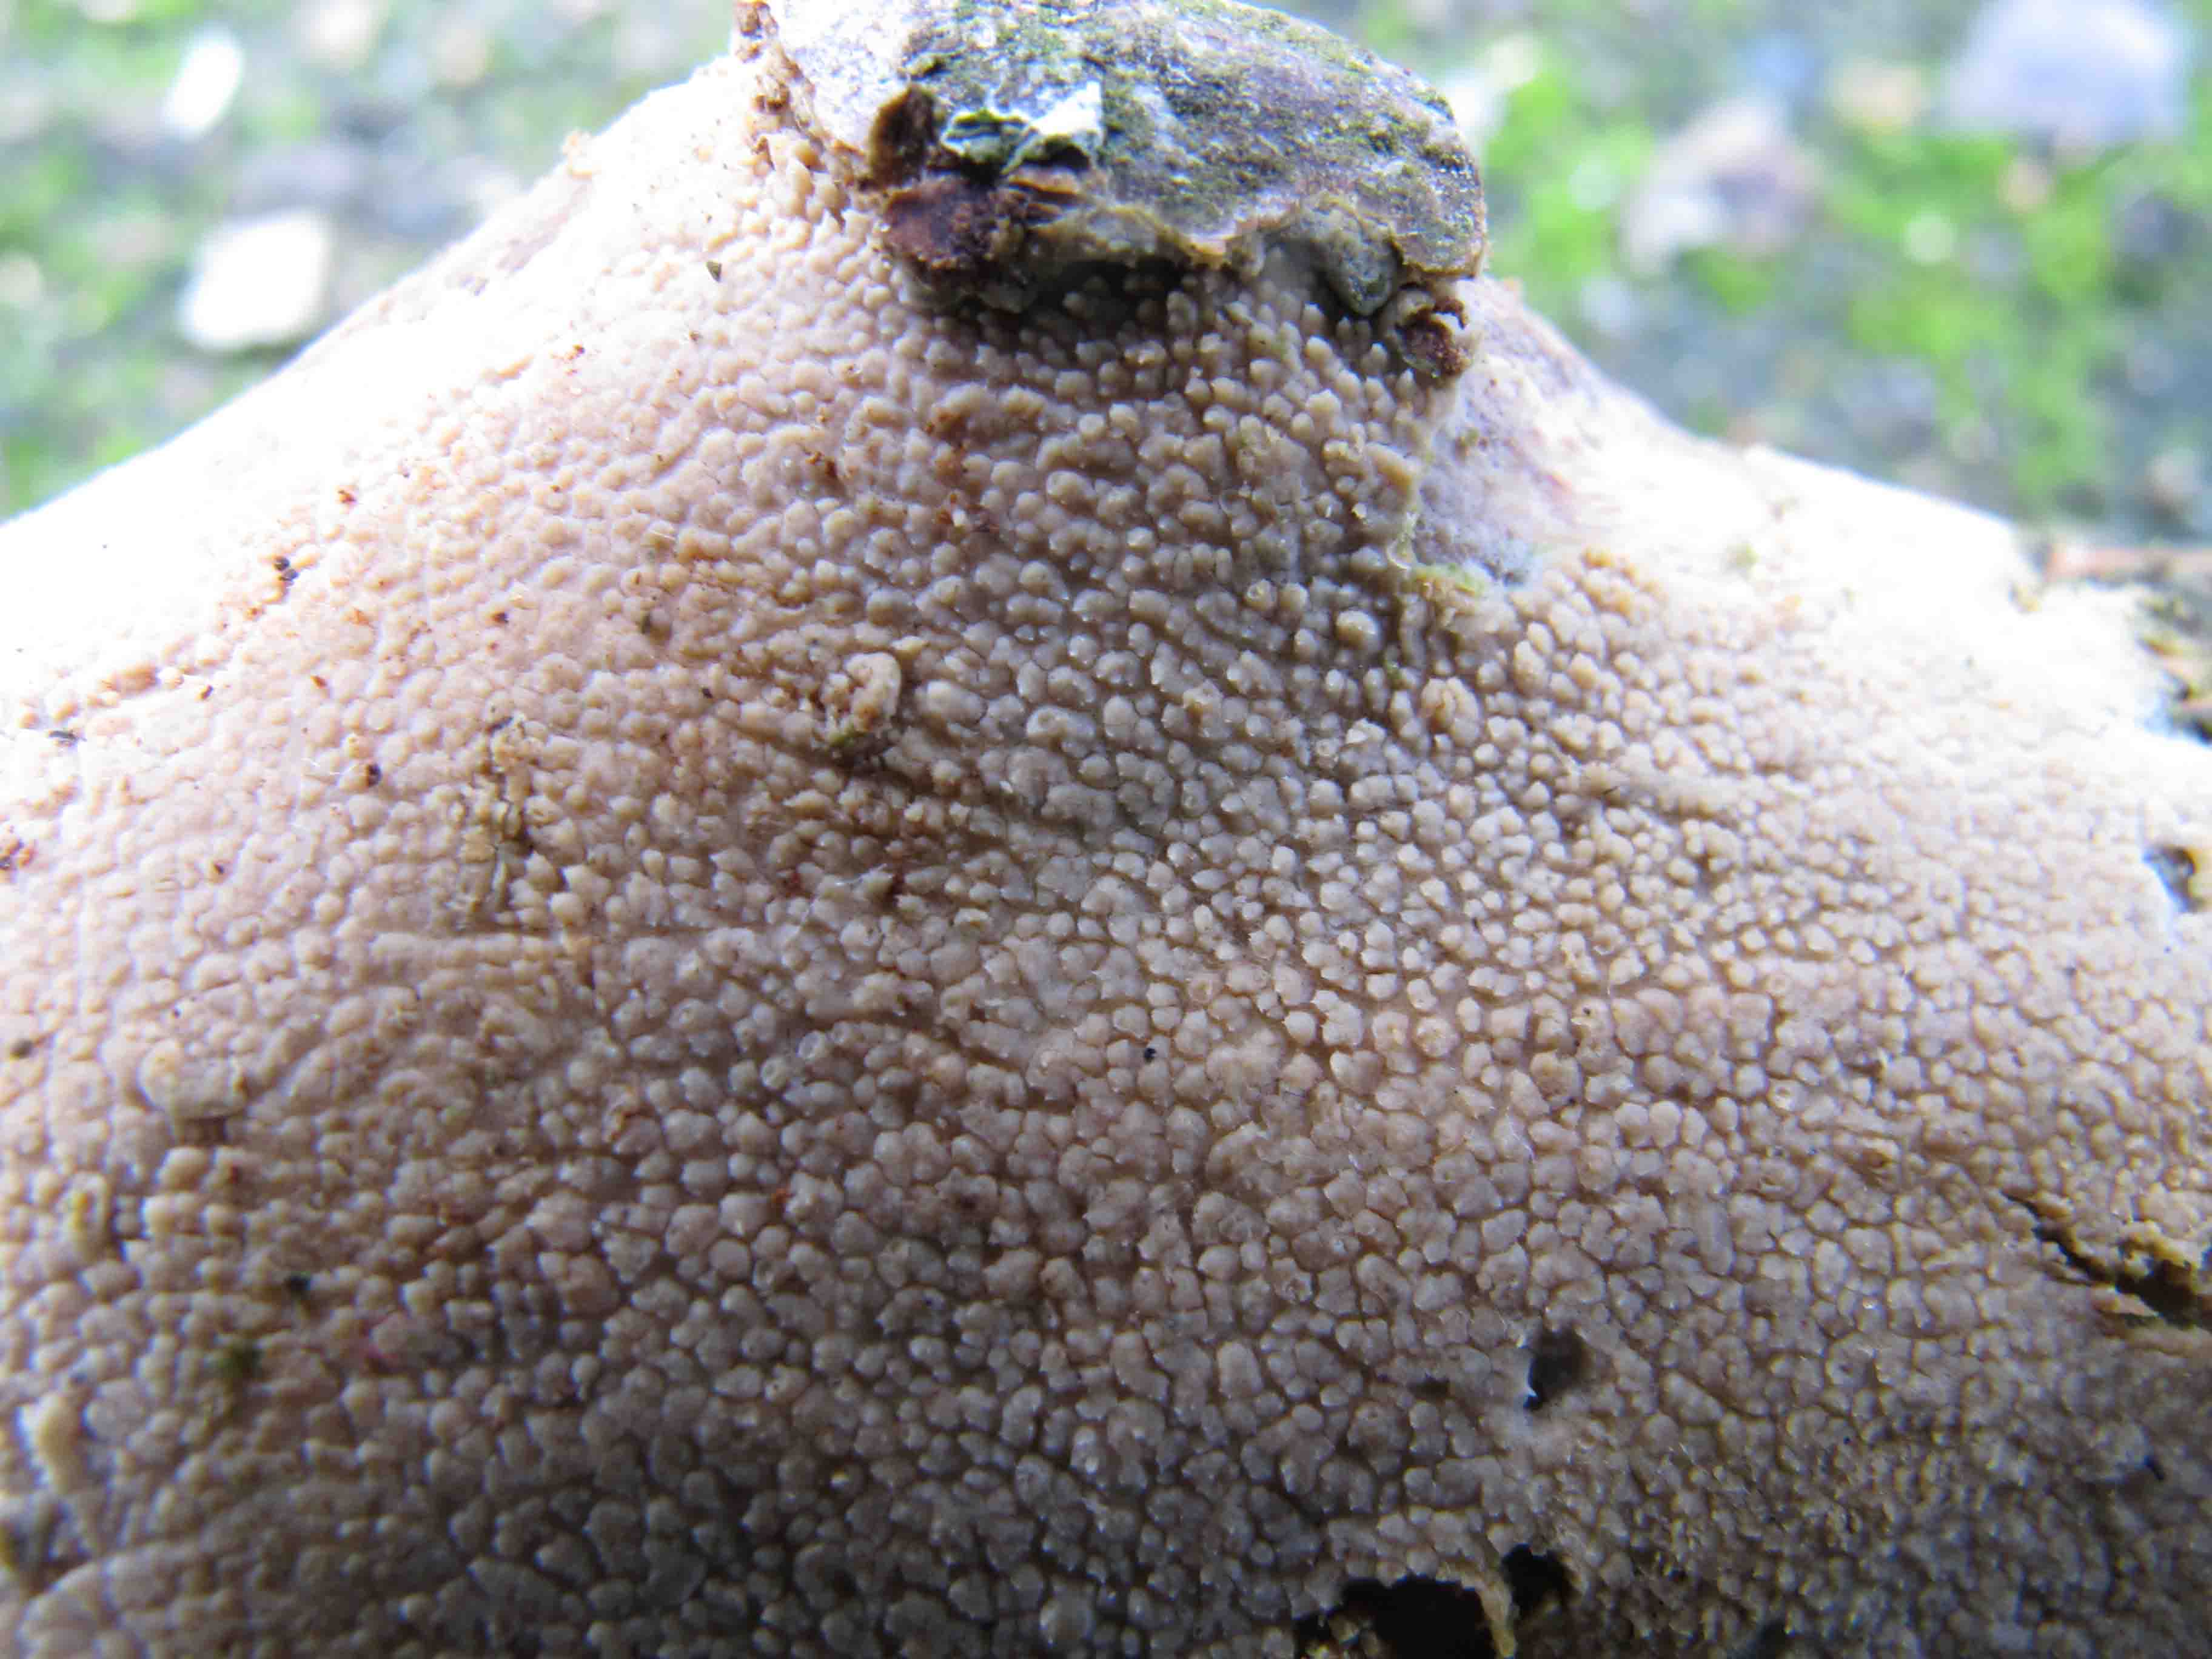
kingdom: Fungi
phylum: Basidiomycota
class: Agaricomycetes
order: Hymenochaetales
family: Hyphodontiaceae
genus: Hyphodontia
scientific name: Hyphodontia
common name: nålehinde
